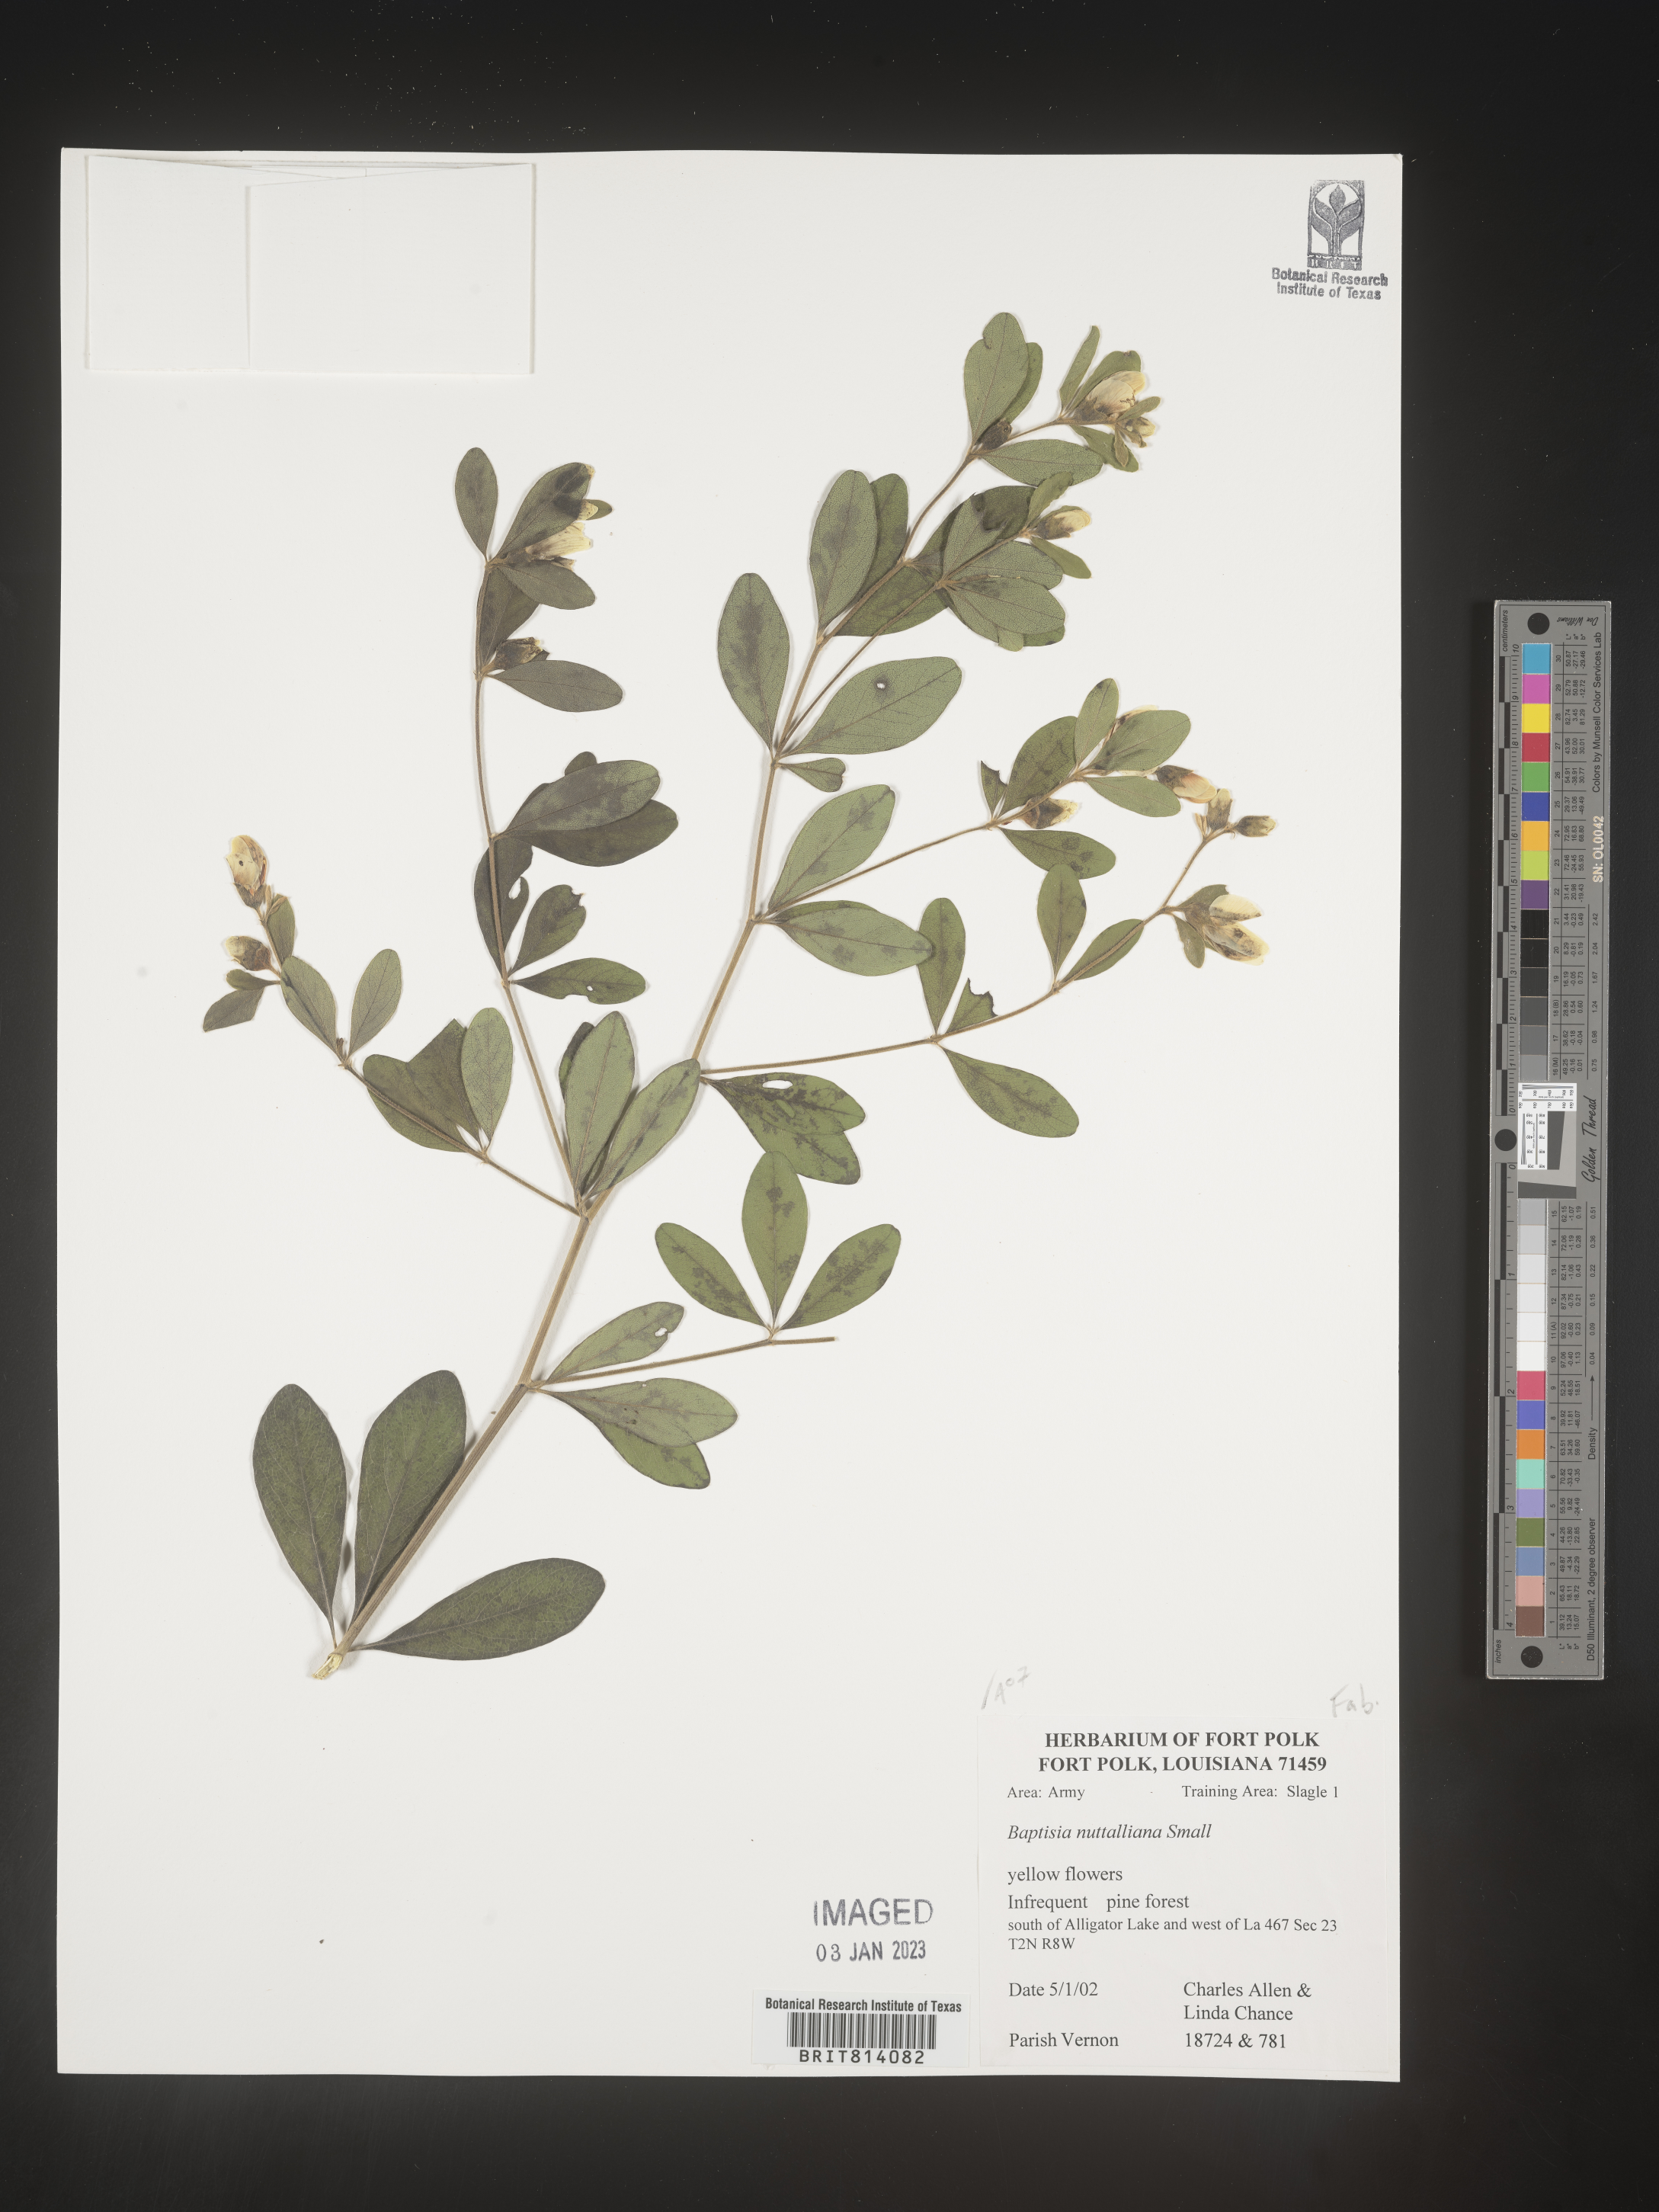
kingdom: Plantae
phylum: Tracheophyta
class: Magnoliopsida
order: Fabales
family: Fabaceae
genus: Baptisia
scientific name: Baptisia nuttalliana
